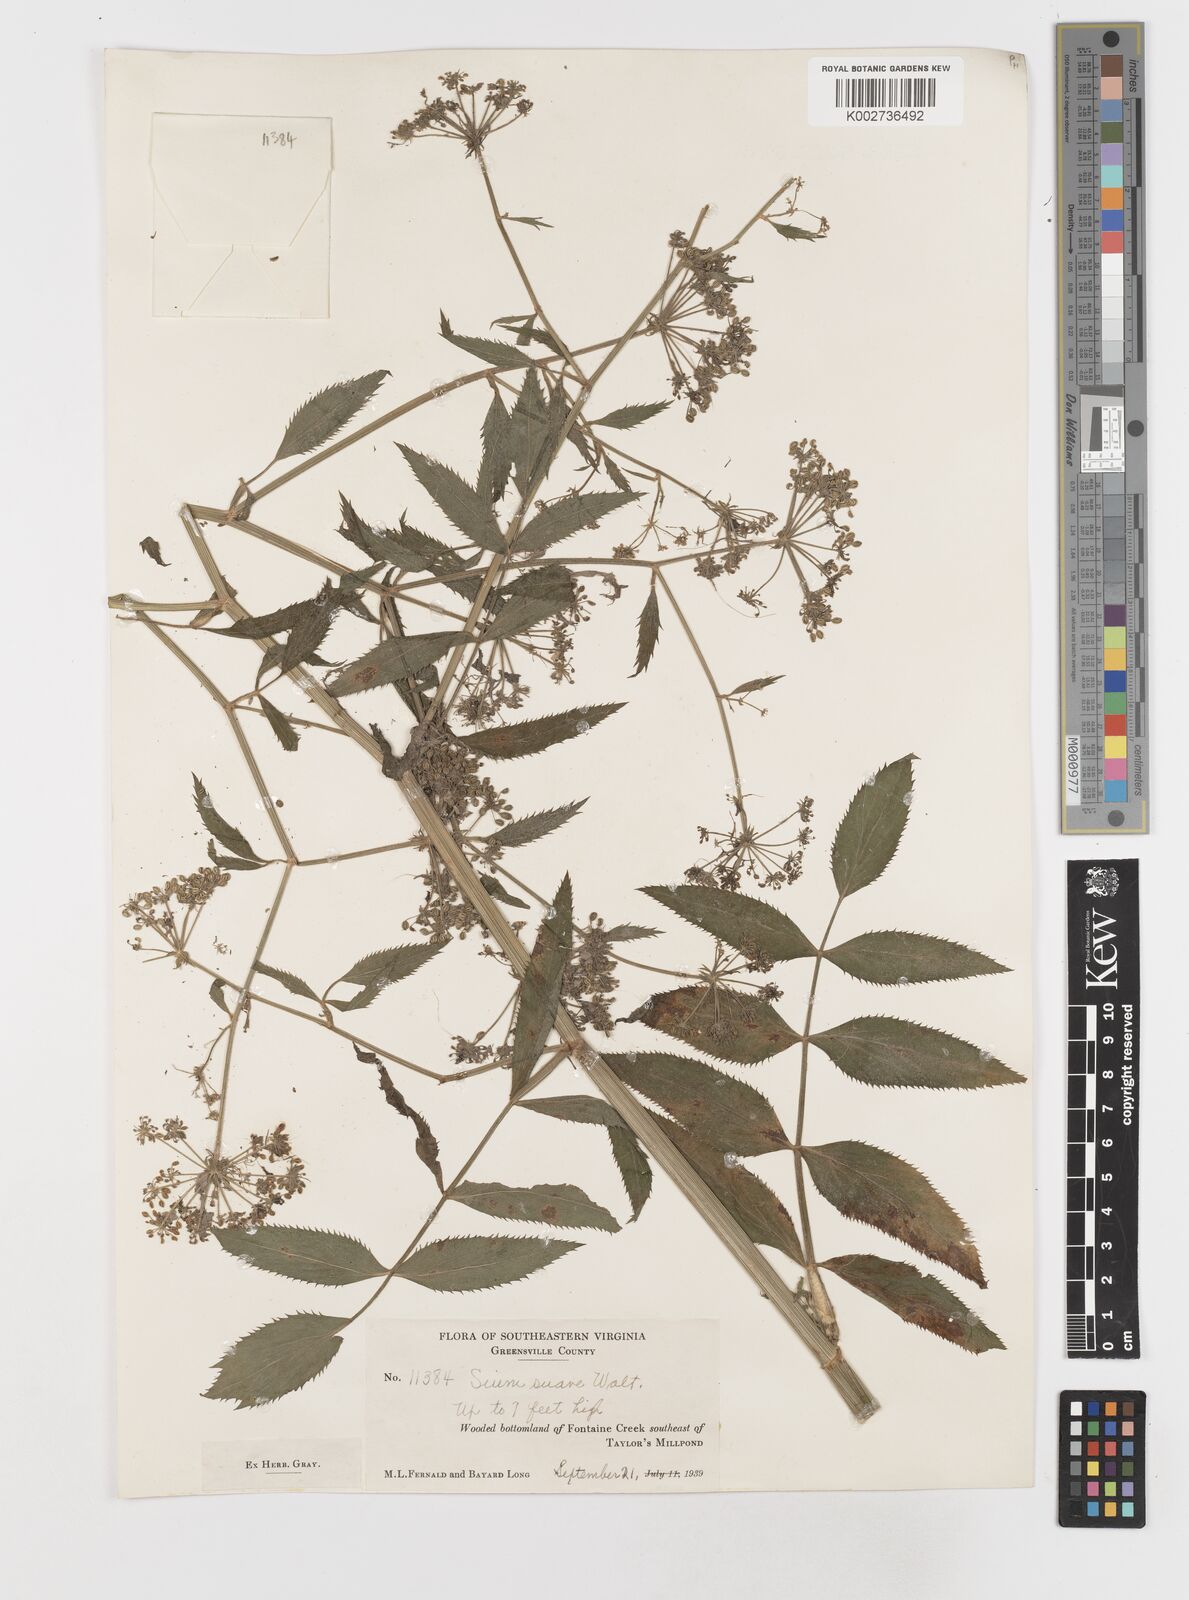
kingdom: Plantae
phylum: Tracheophyta
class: Magnoliopsida
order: Apiales
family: Apiaceae
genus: Sium
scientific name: Sium suave
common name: Hemlock water-parsnip
